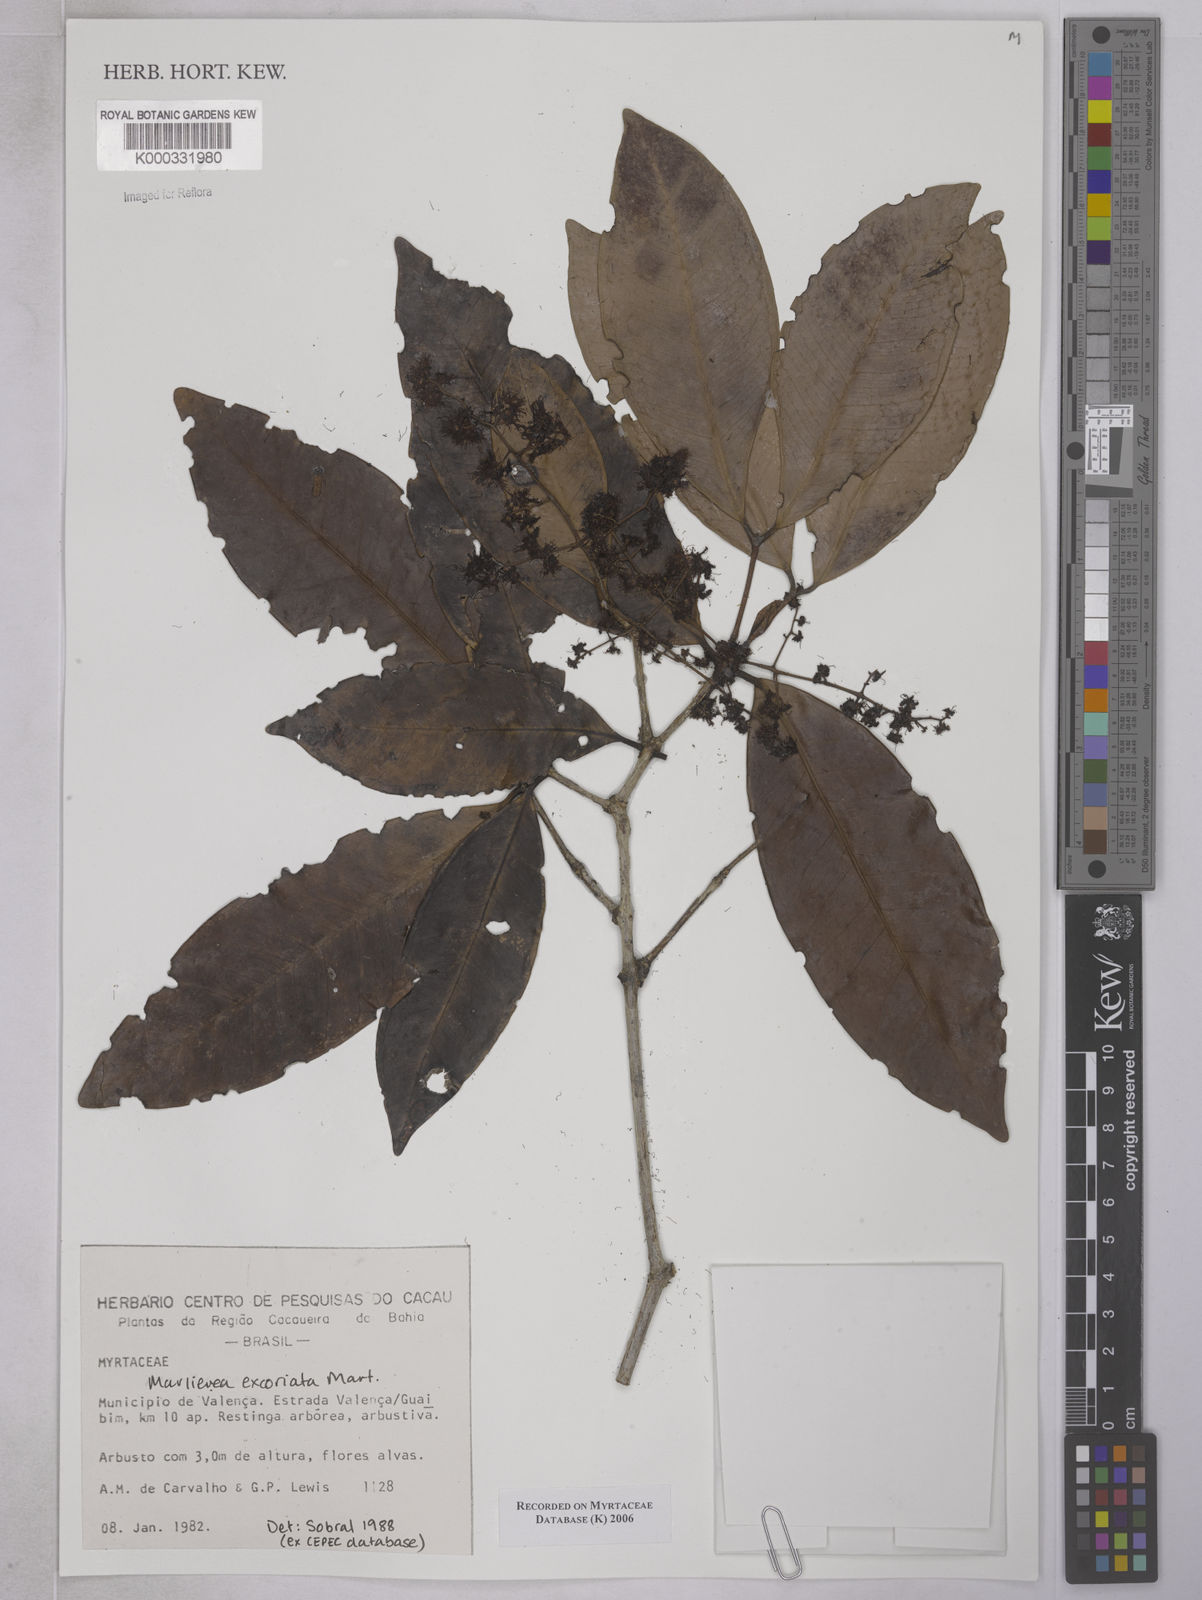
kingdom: Plantae
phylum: Tracheophyta
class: Magnoliopsida
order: Myrtales
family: Myrtaceae
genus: Marlierea
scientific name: Marlierea
